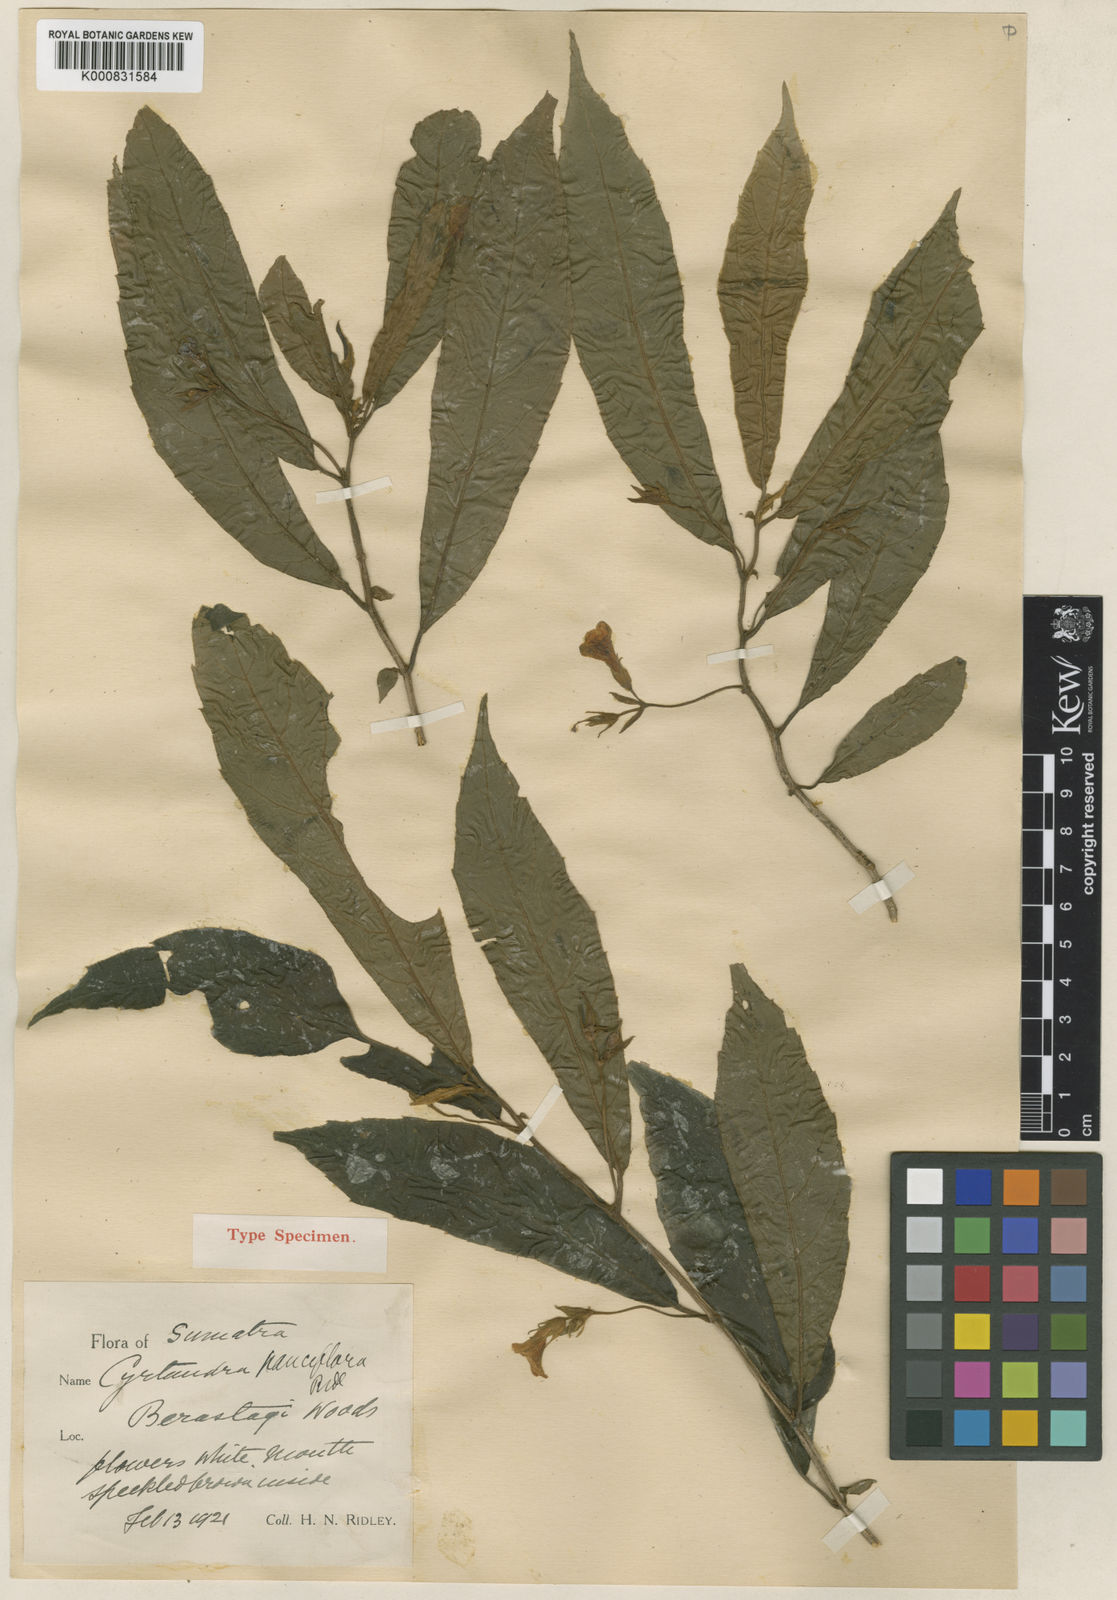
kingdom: Plantae
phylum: Tracheophyta
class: Magnoliopsida
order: Lamiales
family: Gesneriaceae
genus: Cyrtandra
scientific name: Cyrtandra pauciflora
